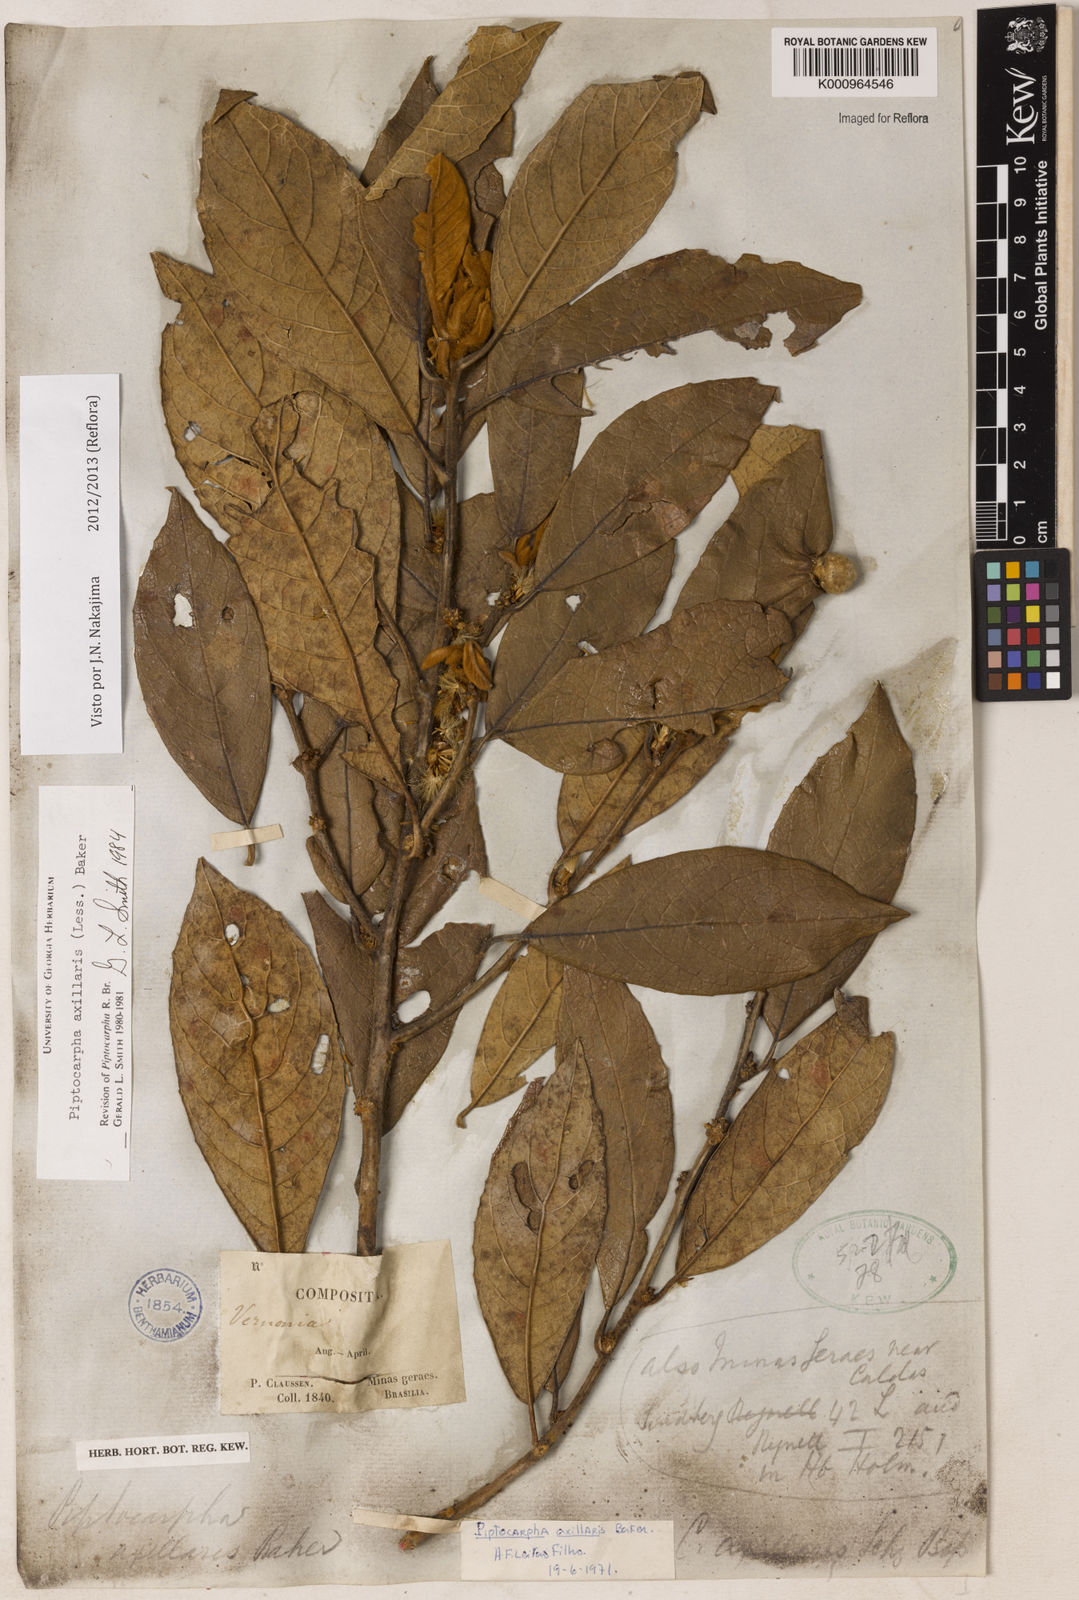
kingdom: Plantae
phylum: Tracheophyta
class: Magnoliopsida
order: Asterales
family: Asteraceae
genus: Piptocarpha
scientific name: Piptocarpha axillaris
